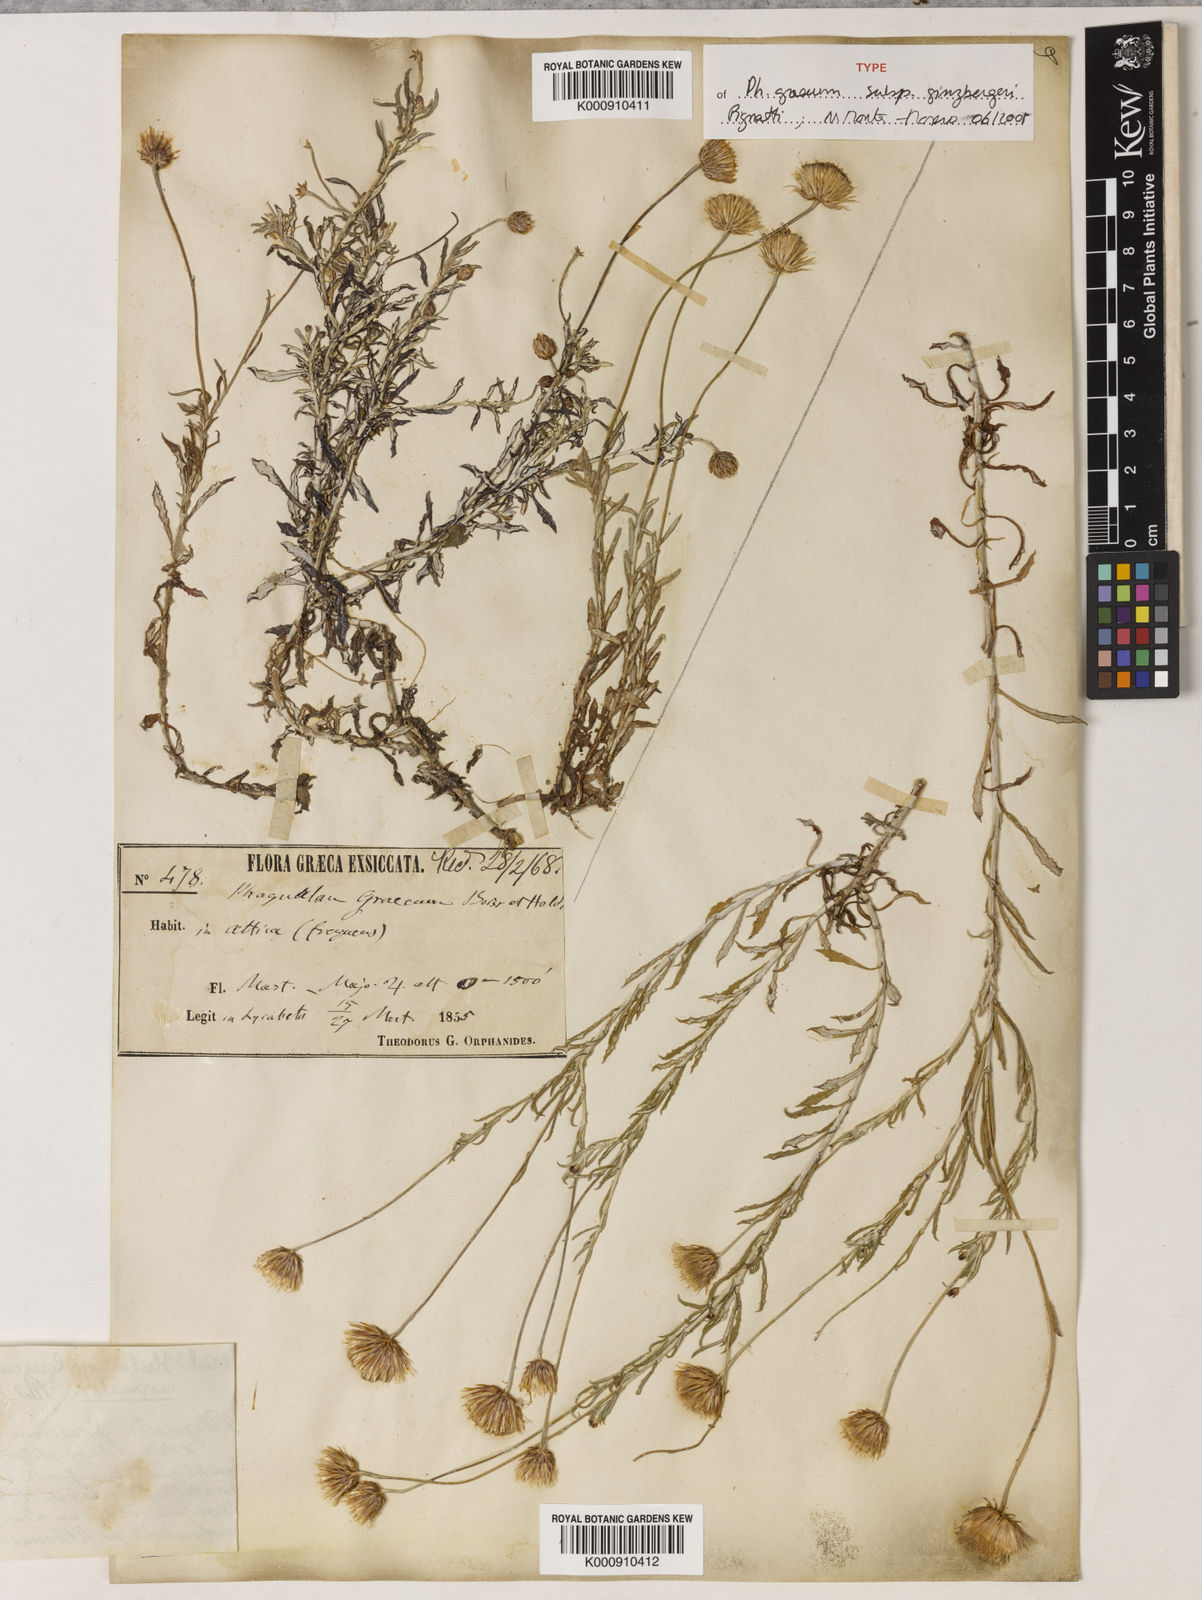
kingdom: Plantae
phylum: Tracheophyta
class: Magnoliopsida
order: Asterales
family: Asteraceae
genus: Phagnalon
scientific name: Phagnalon graecum
